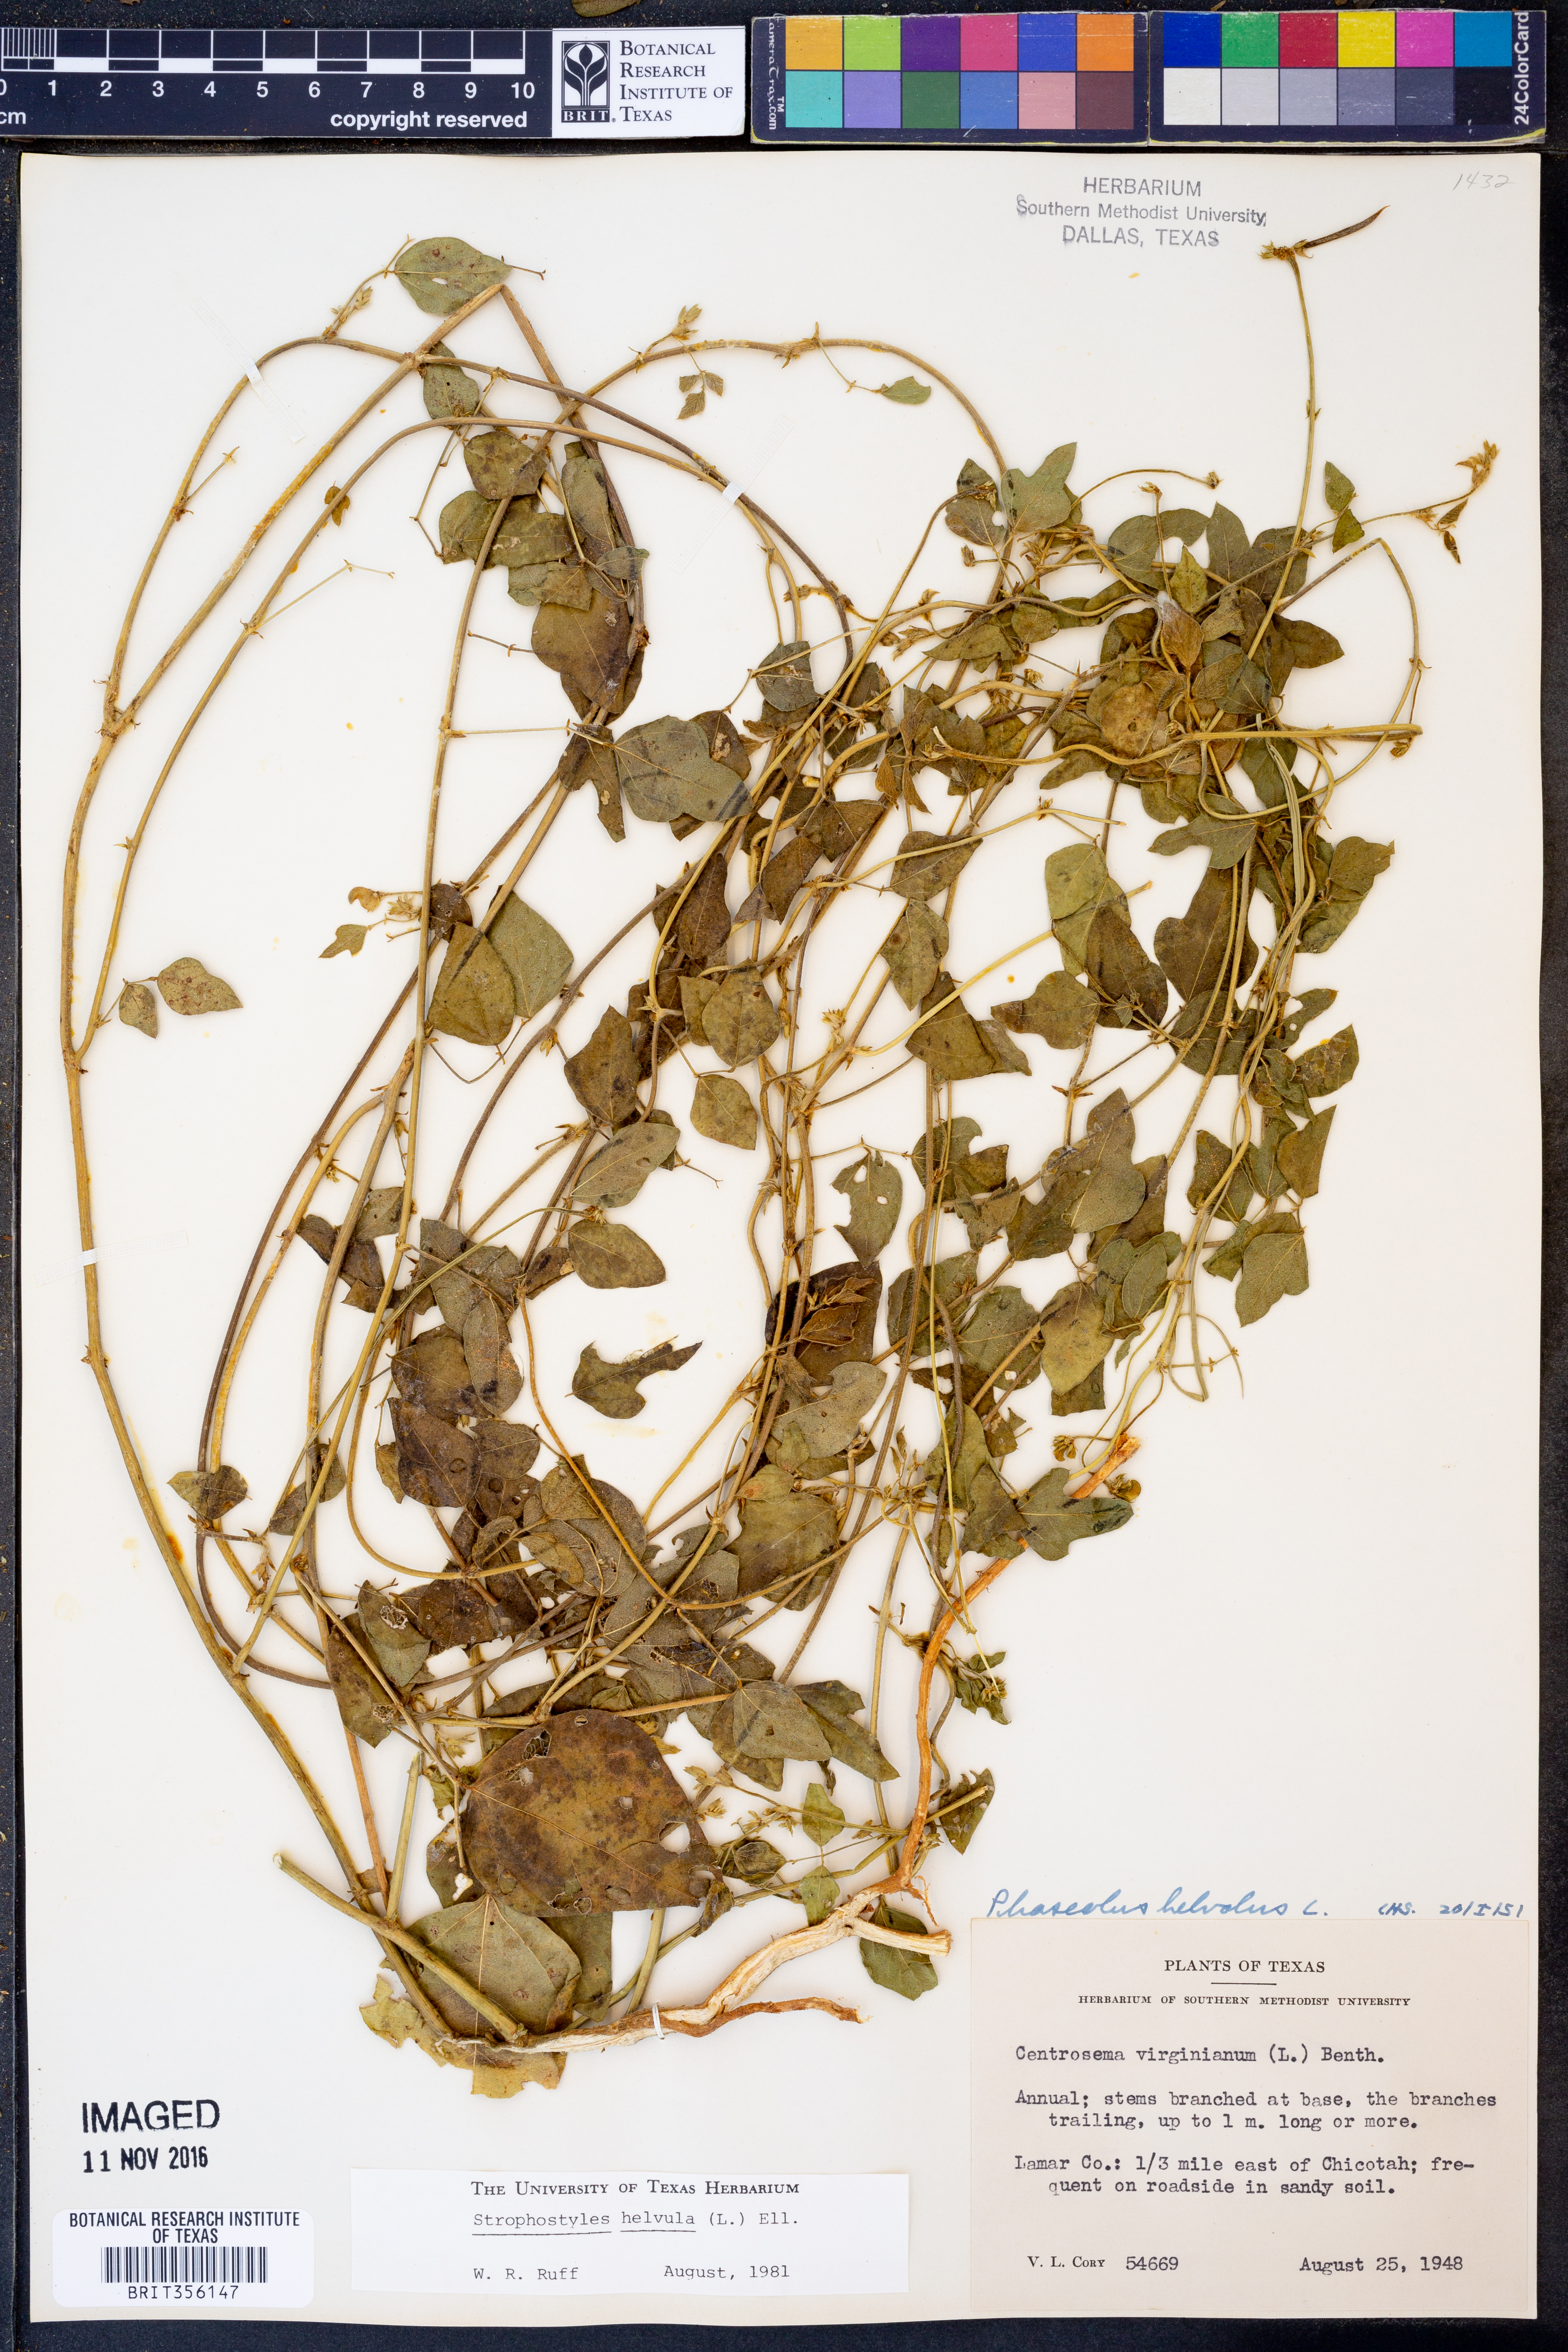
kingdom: Plantae
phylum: Tracheophyta
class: Magnoliopsida
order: Fabales
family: Fabaceae
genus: Strophostyles
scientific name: Strophostyles helvula
